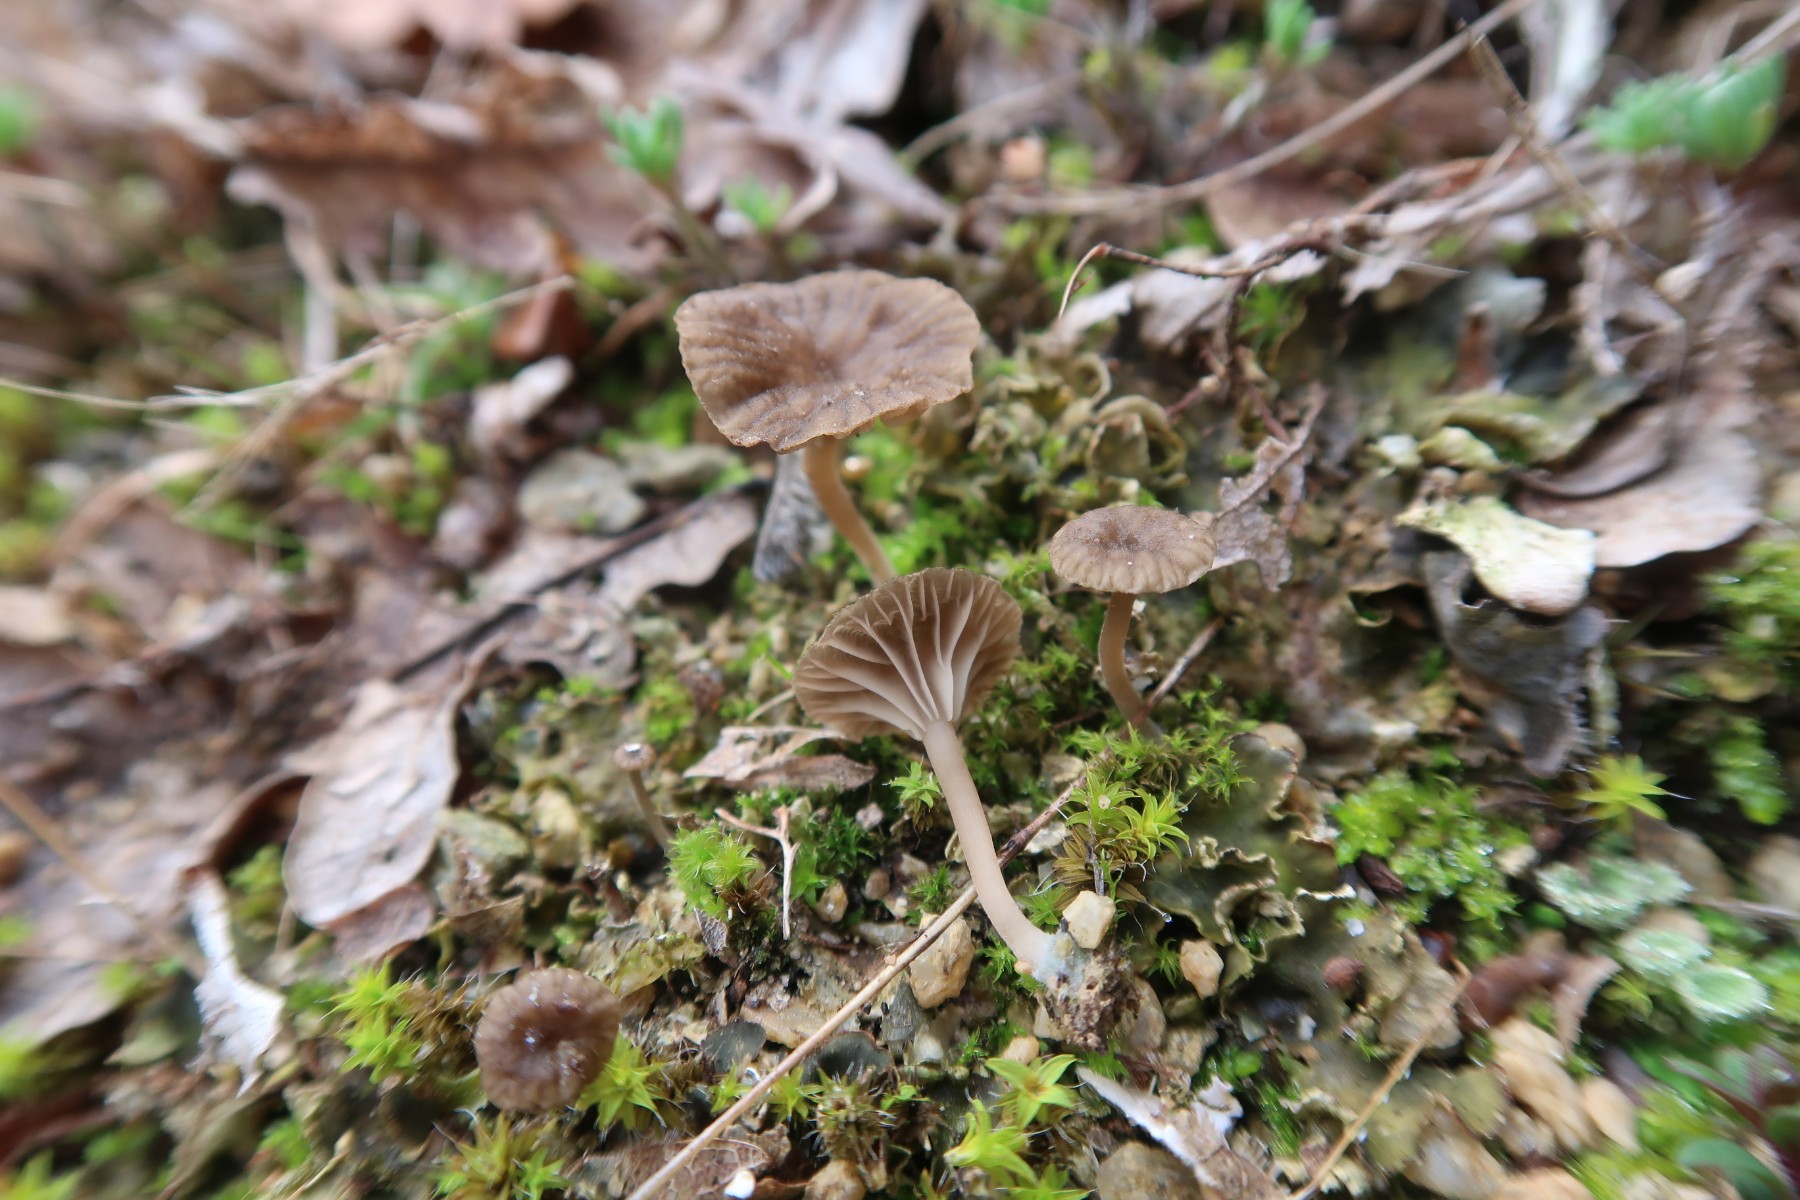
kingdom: Fungi
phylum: Basidiomycota
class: Agaricomycetes
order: Agaricales
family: Hygrophoraceae
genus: Arrhenia
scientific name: Arrhenia peltigerina
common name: skjoldlav-fontænehat
